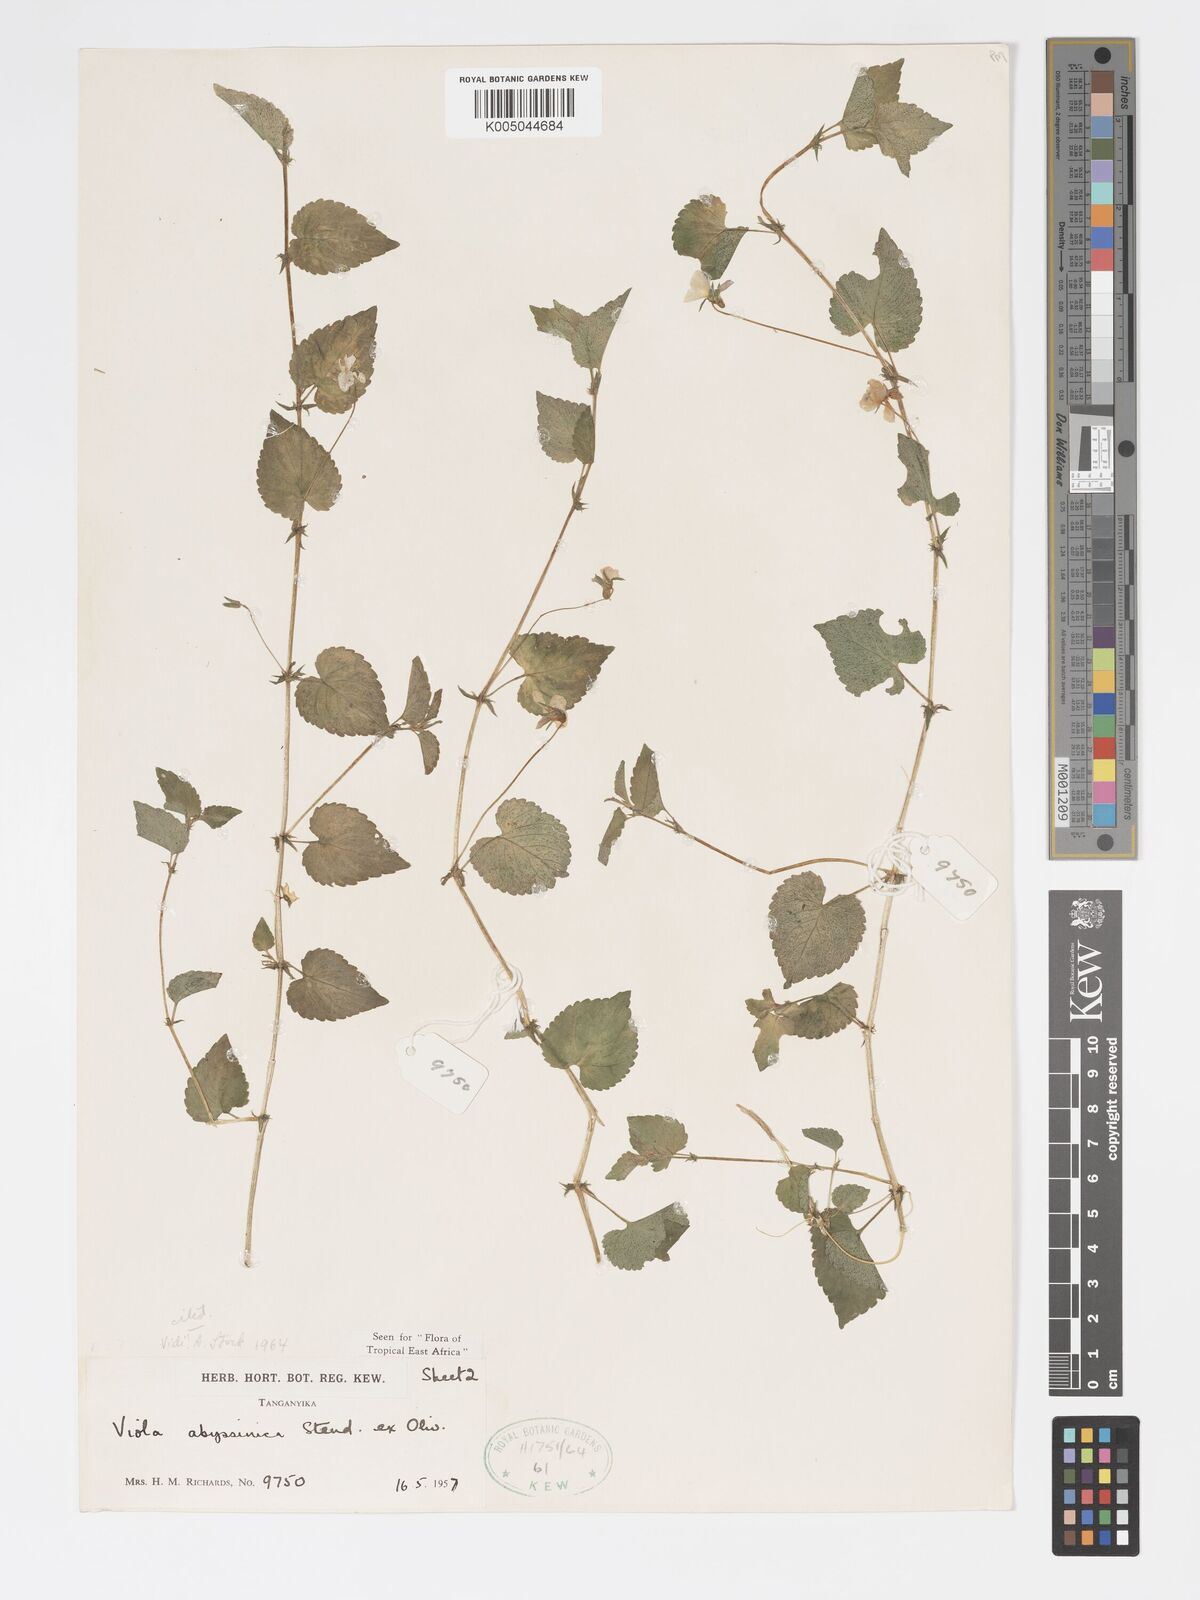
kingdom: Plantae
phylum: Tracheophyta
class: Magnoliopsida
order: Malpighiales
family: Violaceae
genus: Viola
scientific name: Viola abyssinica
